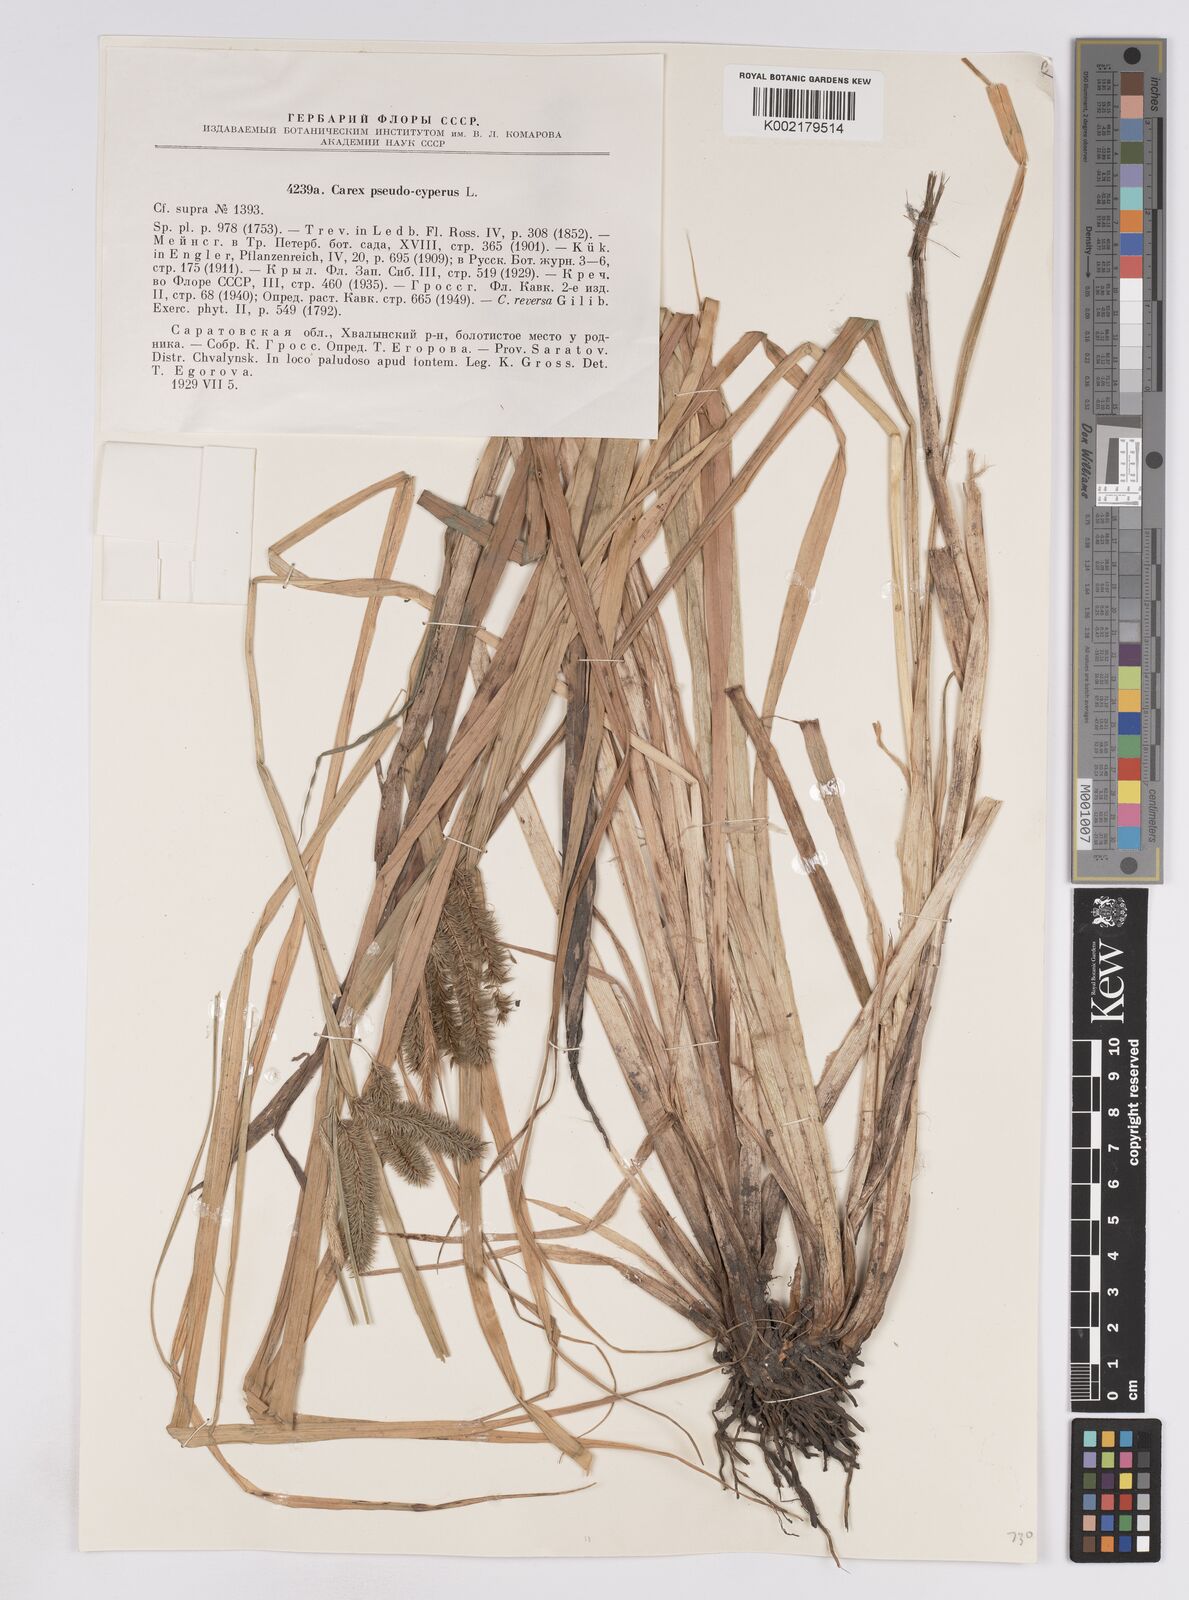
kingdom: Plantae
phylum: Tracheophyta
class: Liliopsida
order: Poales
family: Cyperaceae
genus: Carex
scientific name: Carex pseudocyperus
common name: Cyperus sedge
